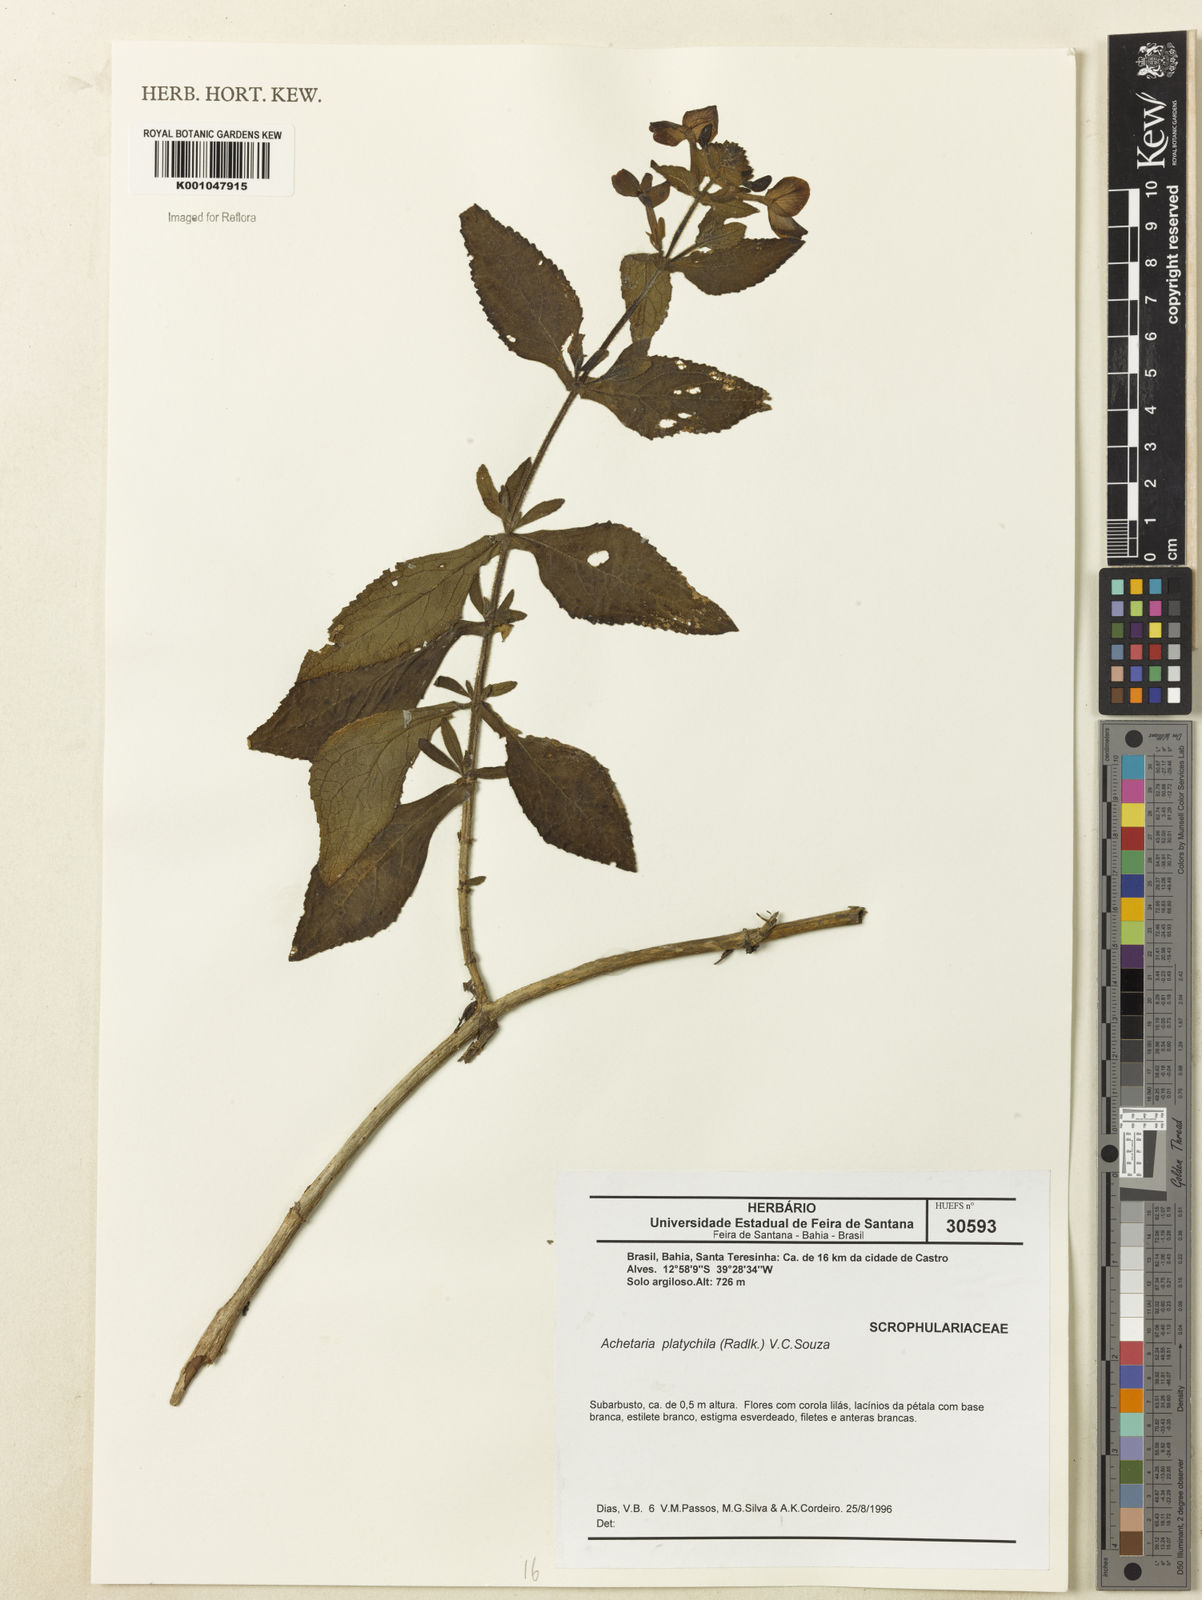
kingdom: Plantae
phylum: Tracheophyta
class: Magnoliopsida
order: Lamiales
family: Plantaginaceae
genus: Matourea
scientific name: Matourea platychila
